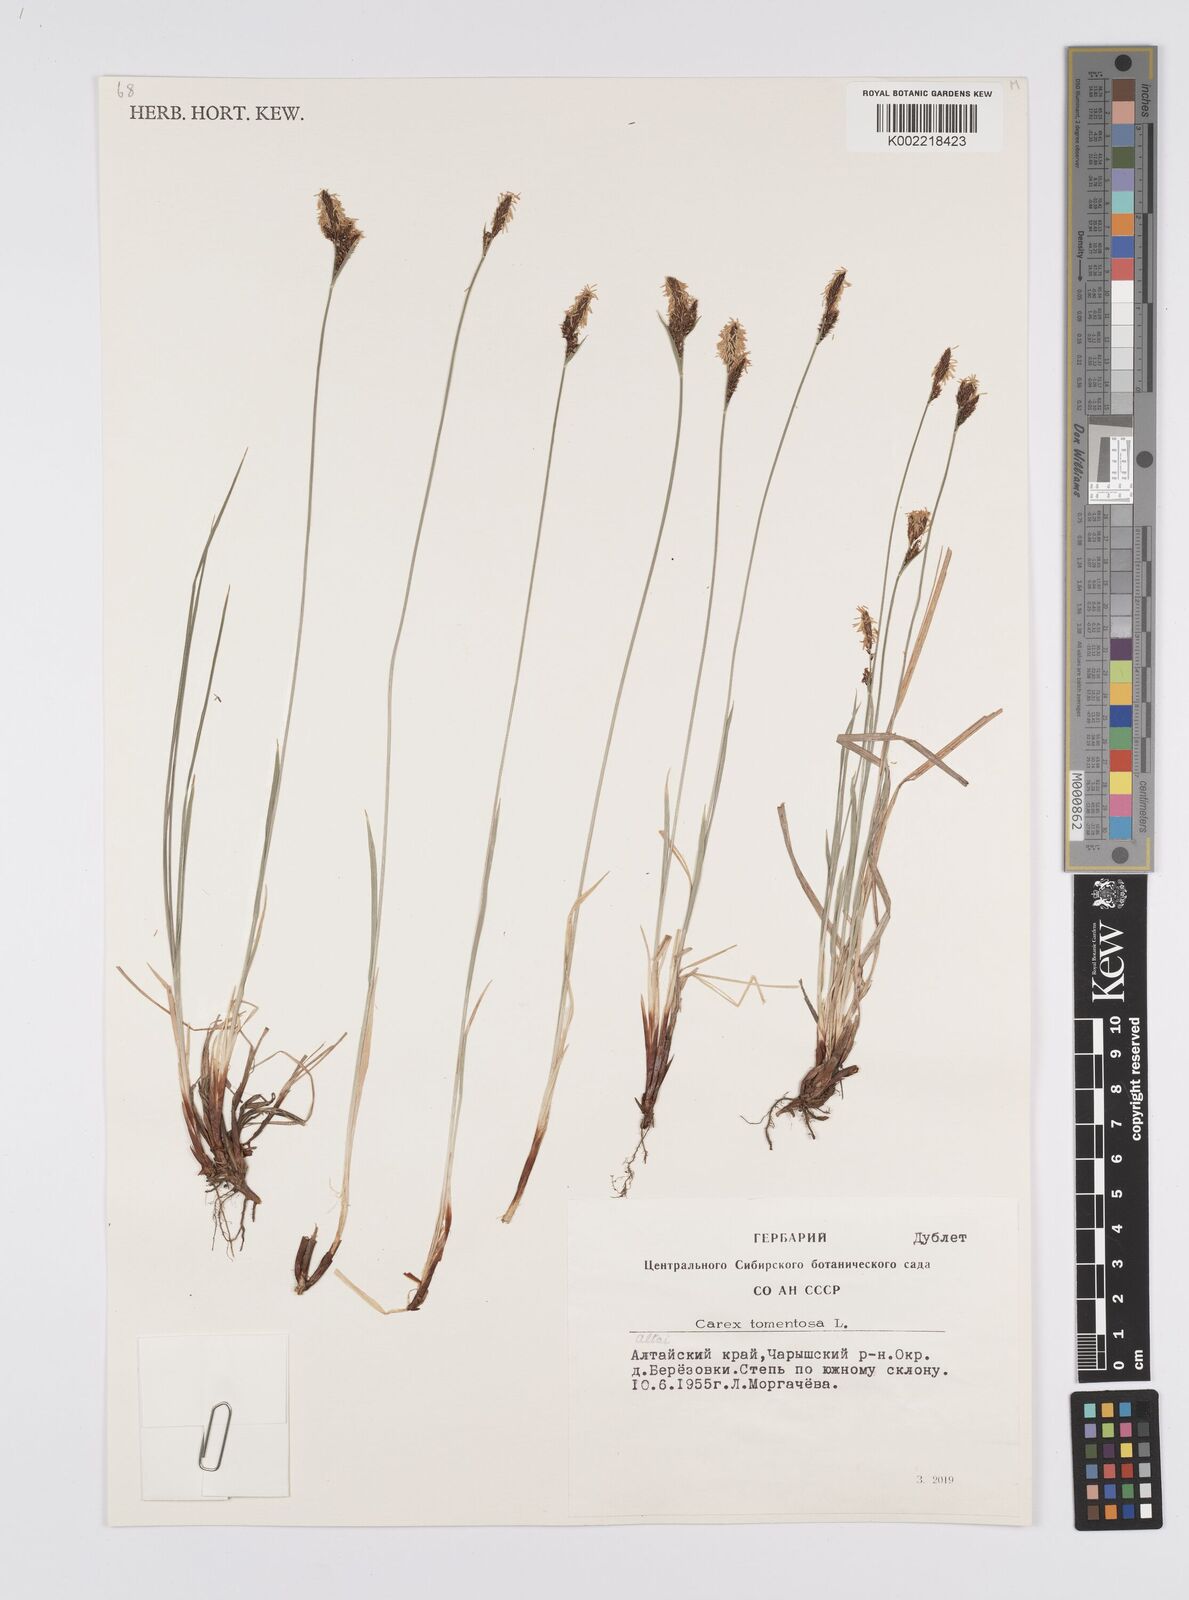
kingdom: Plantae
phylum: Tracheophyta
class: Liliopsida
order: Poales
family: Cyperaceae
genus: Carex
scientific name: Carex tomentosa
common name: Downy-fruited sedge
